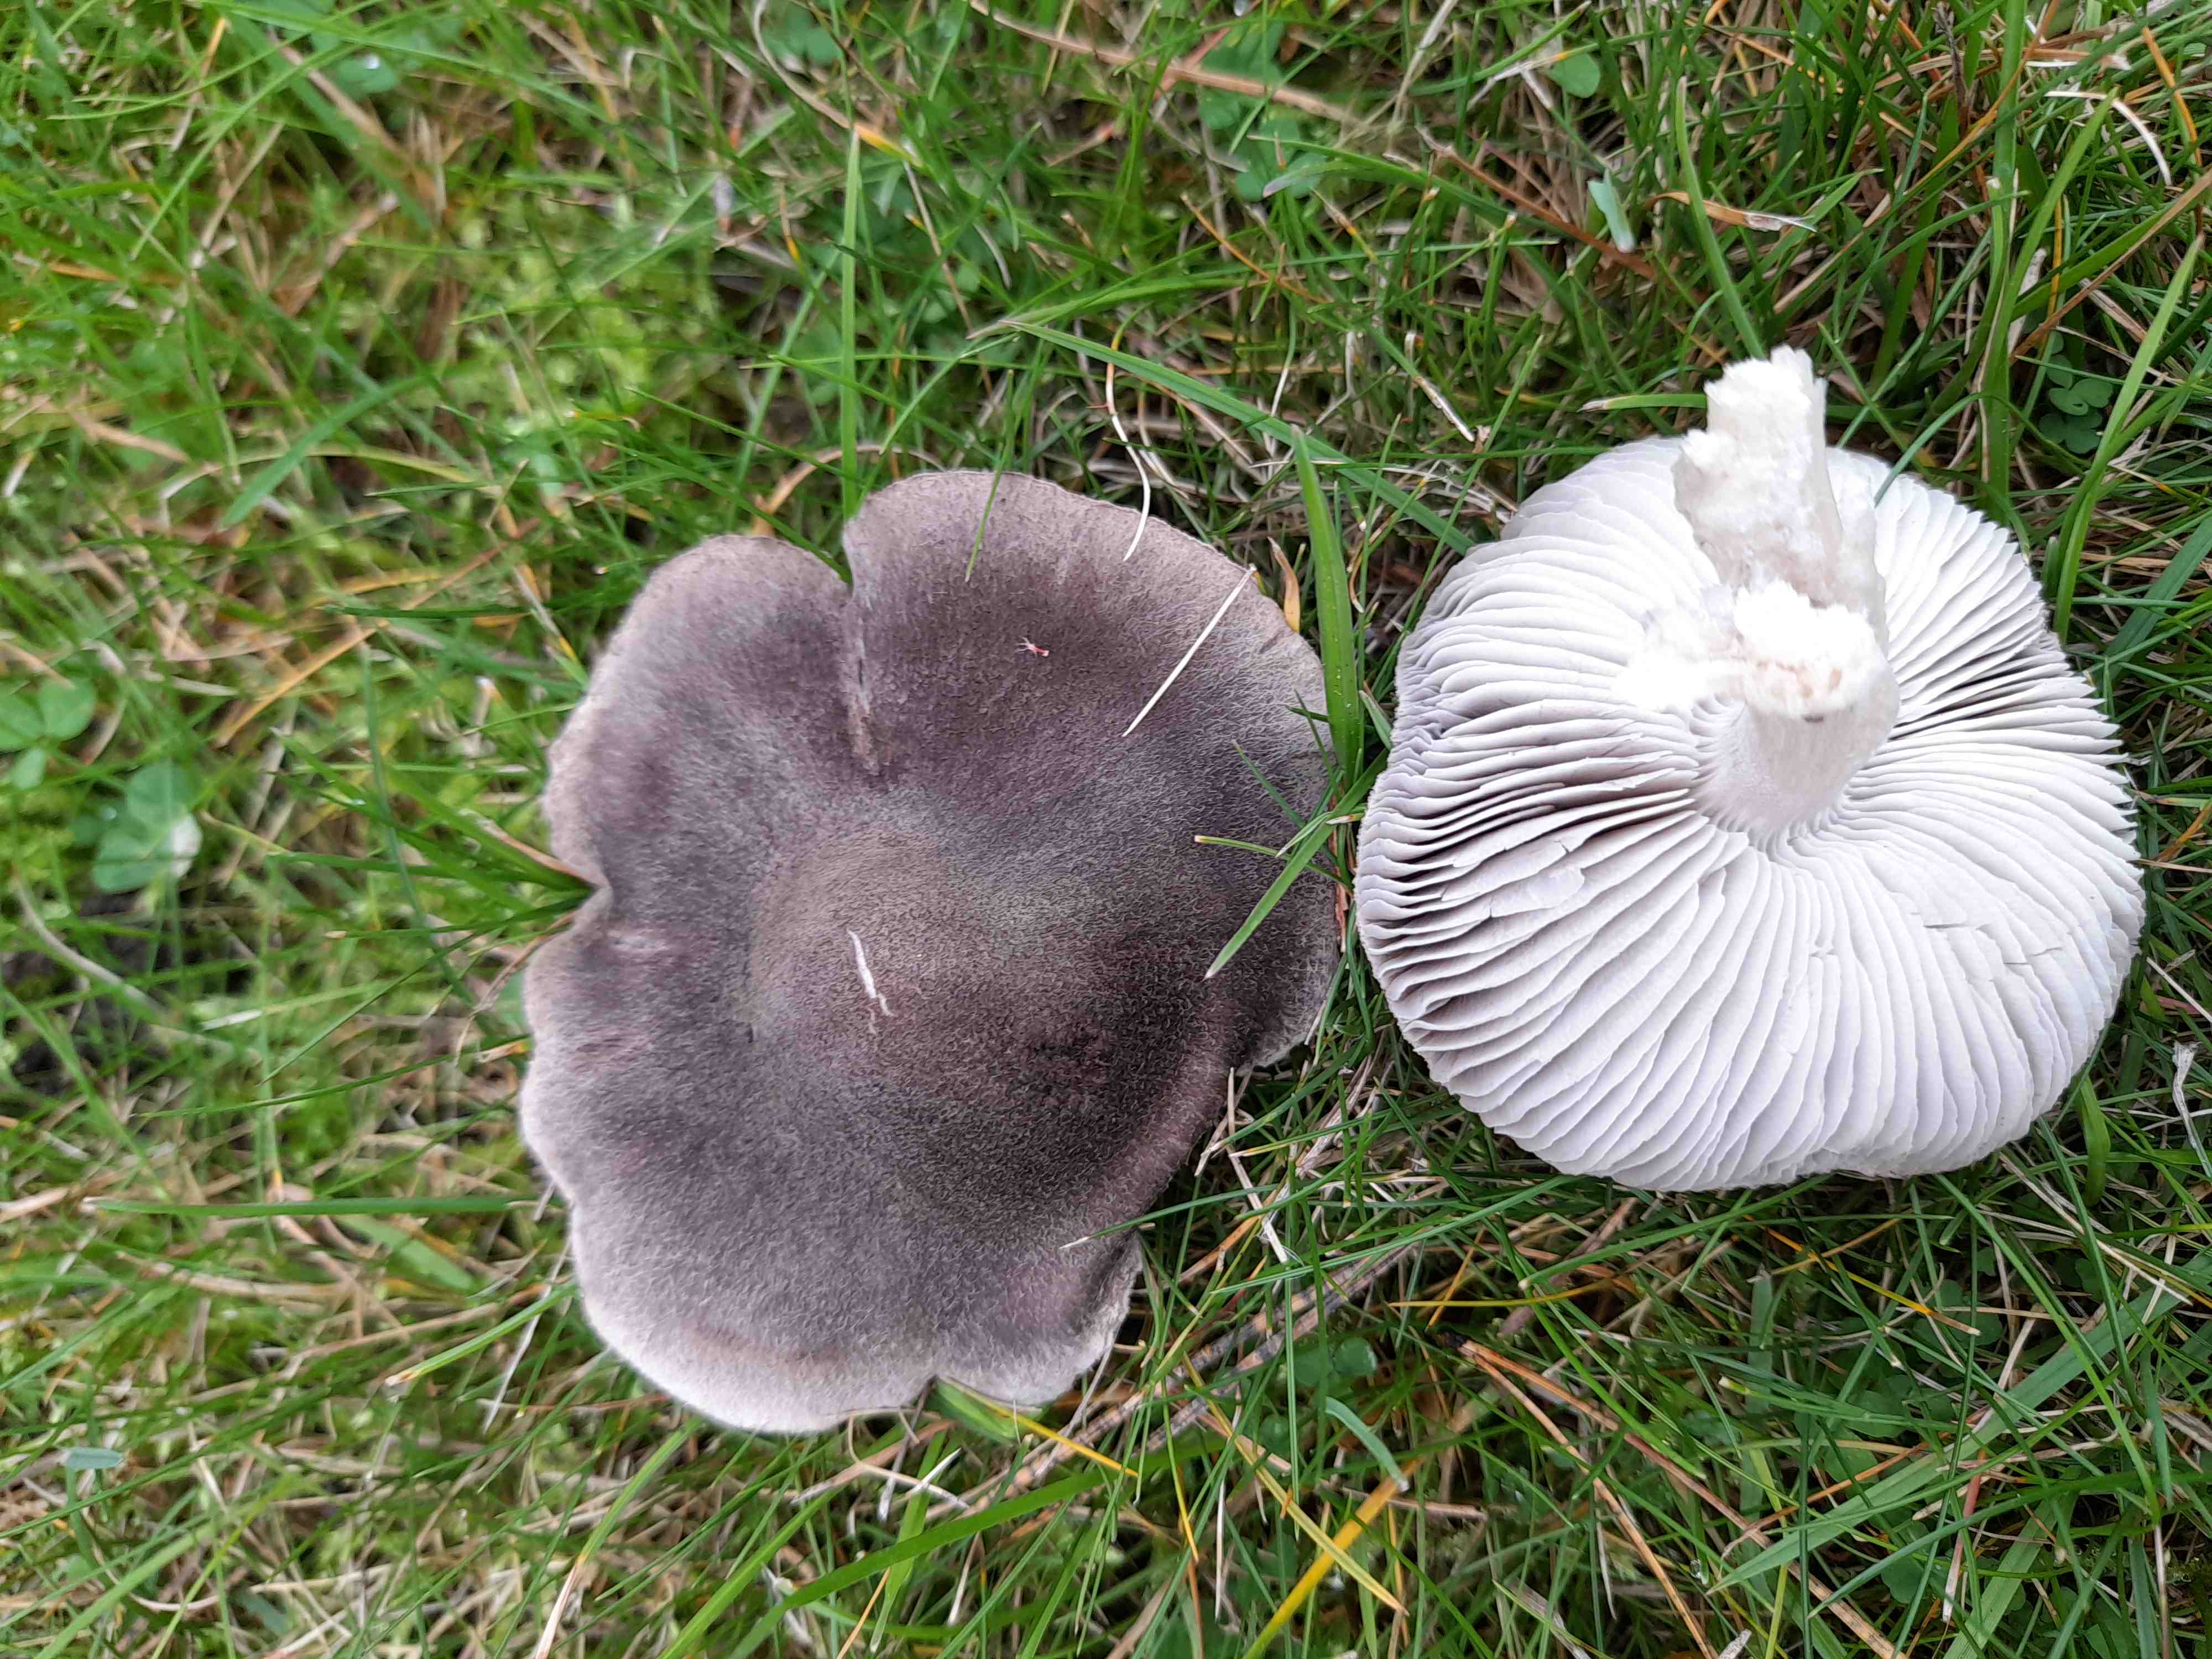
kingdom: Fungi
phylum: Basidiomycota
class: Agaricomycetes
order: Agaricales
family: Tricholomataceae
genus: Tricholoma
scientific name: Tricholoma terreum
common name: jordfarvet ridderhat
